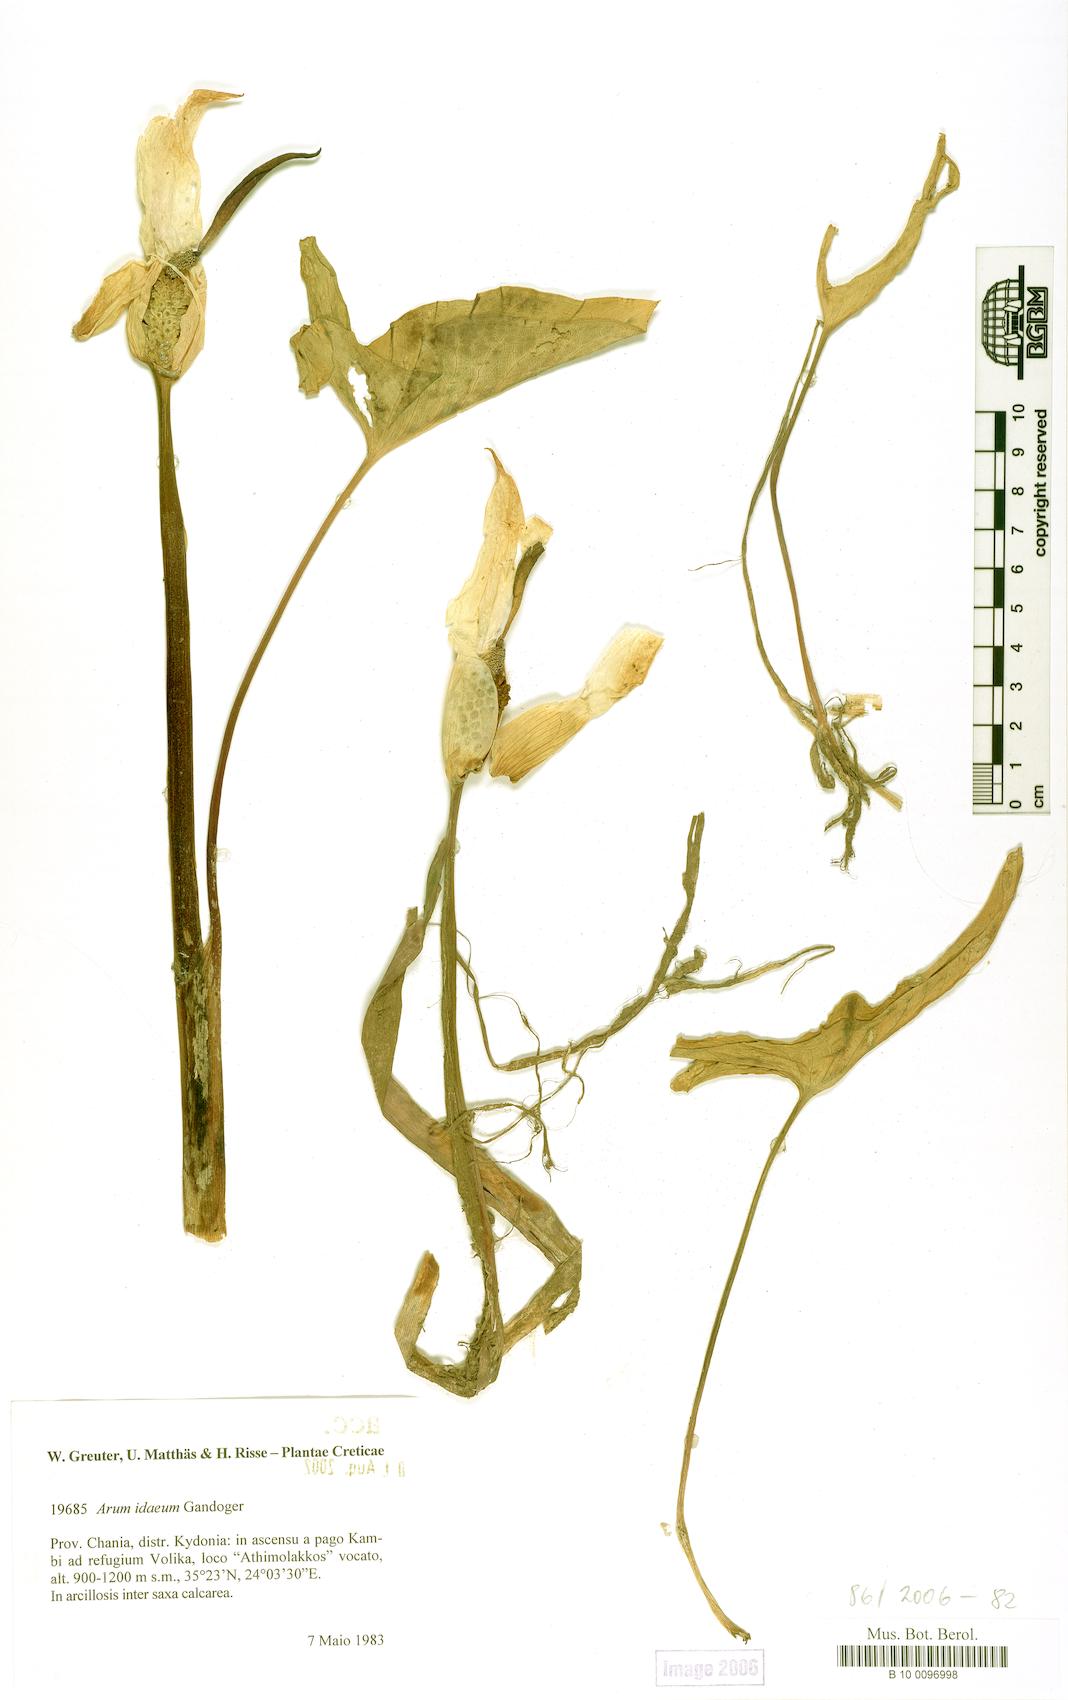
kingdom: Plantae
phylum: Tracheophyta
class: Liliopsida
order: Alismatales
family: Araceae
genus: Arum
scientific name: Arum idaeum
